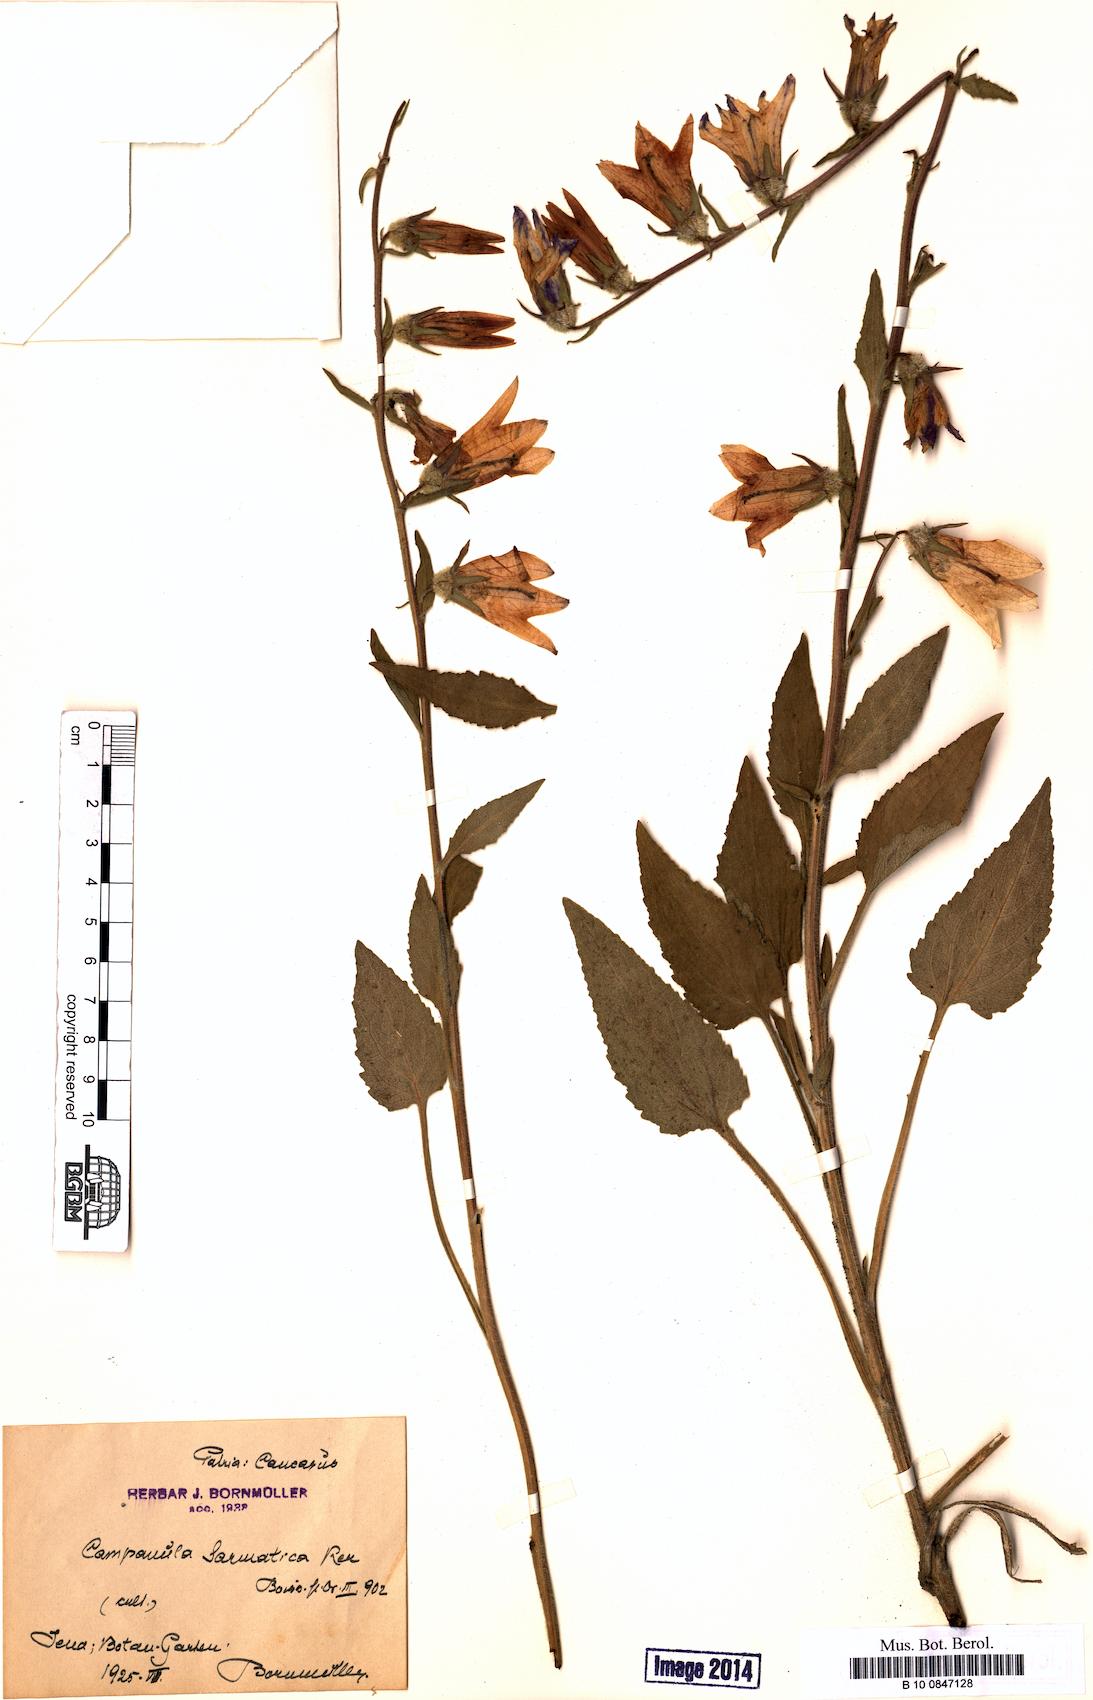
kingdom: Plantae
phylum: Tracheophyta
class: Magnoliopsida
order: Asterales
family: Campanulaceae
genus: Campanula
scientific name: Campanula sarmatica
